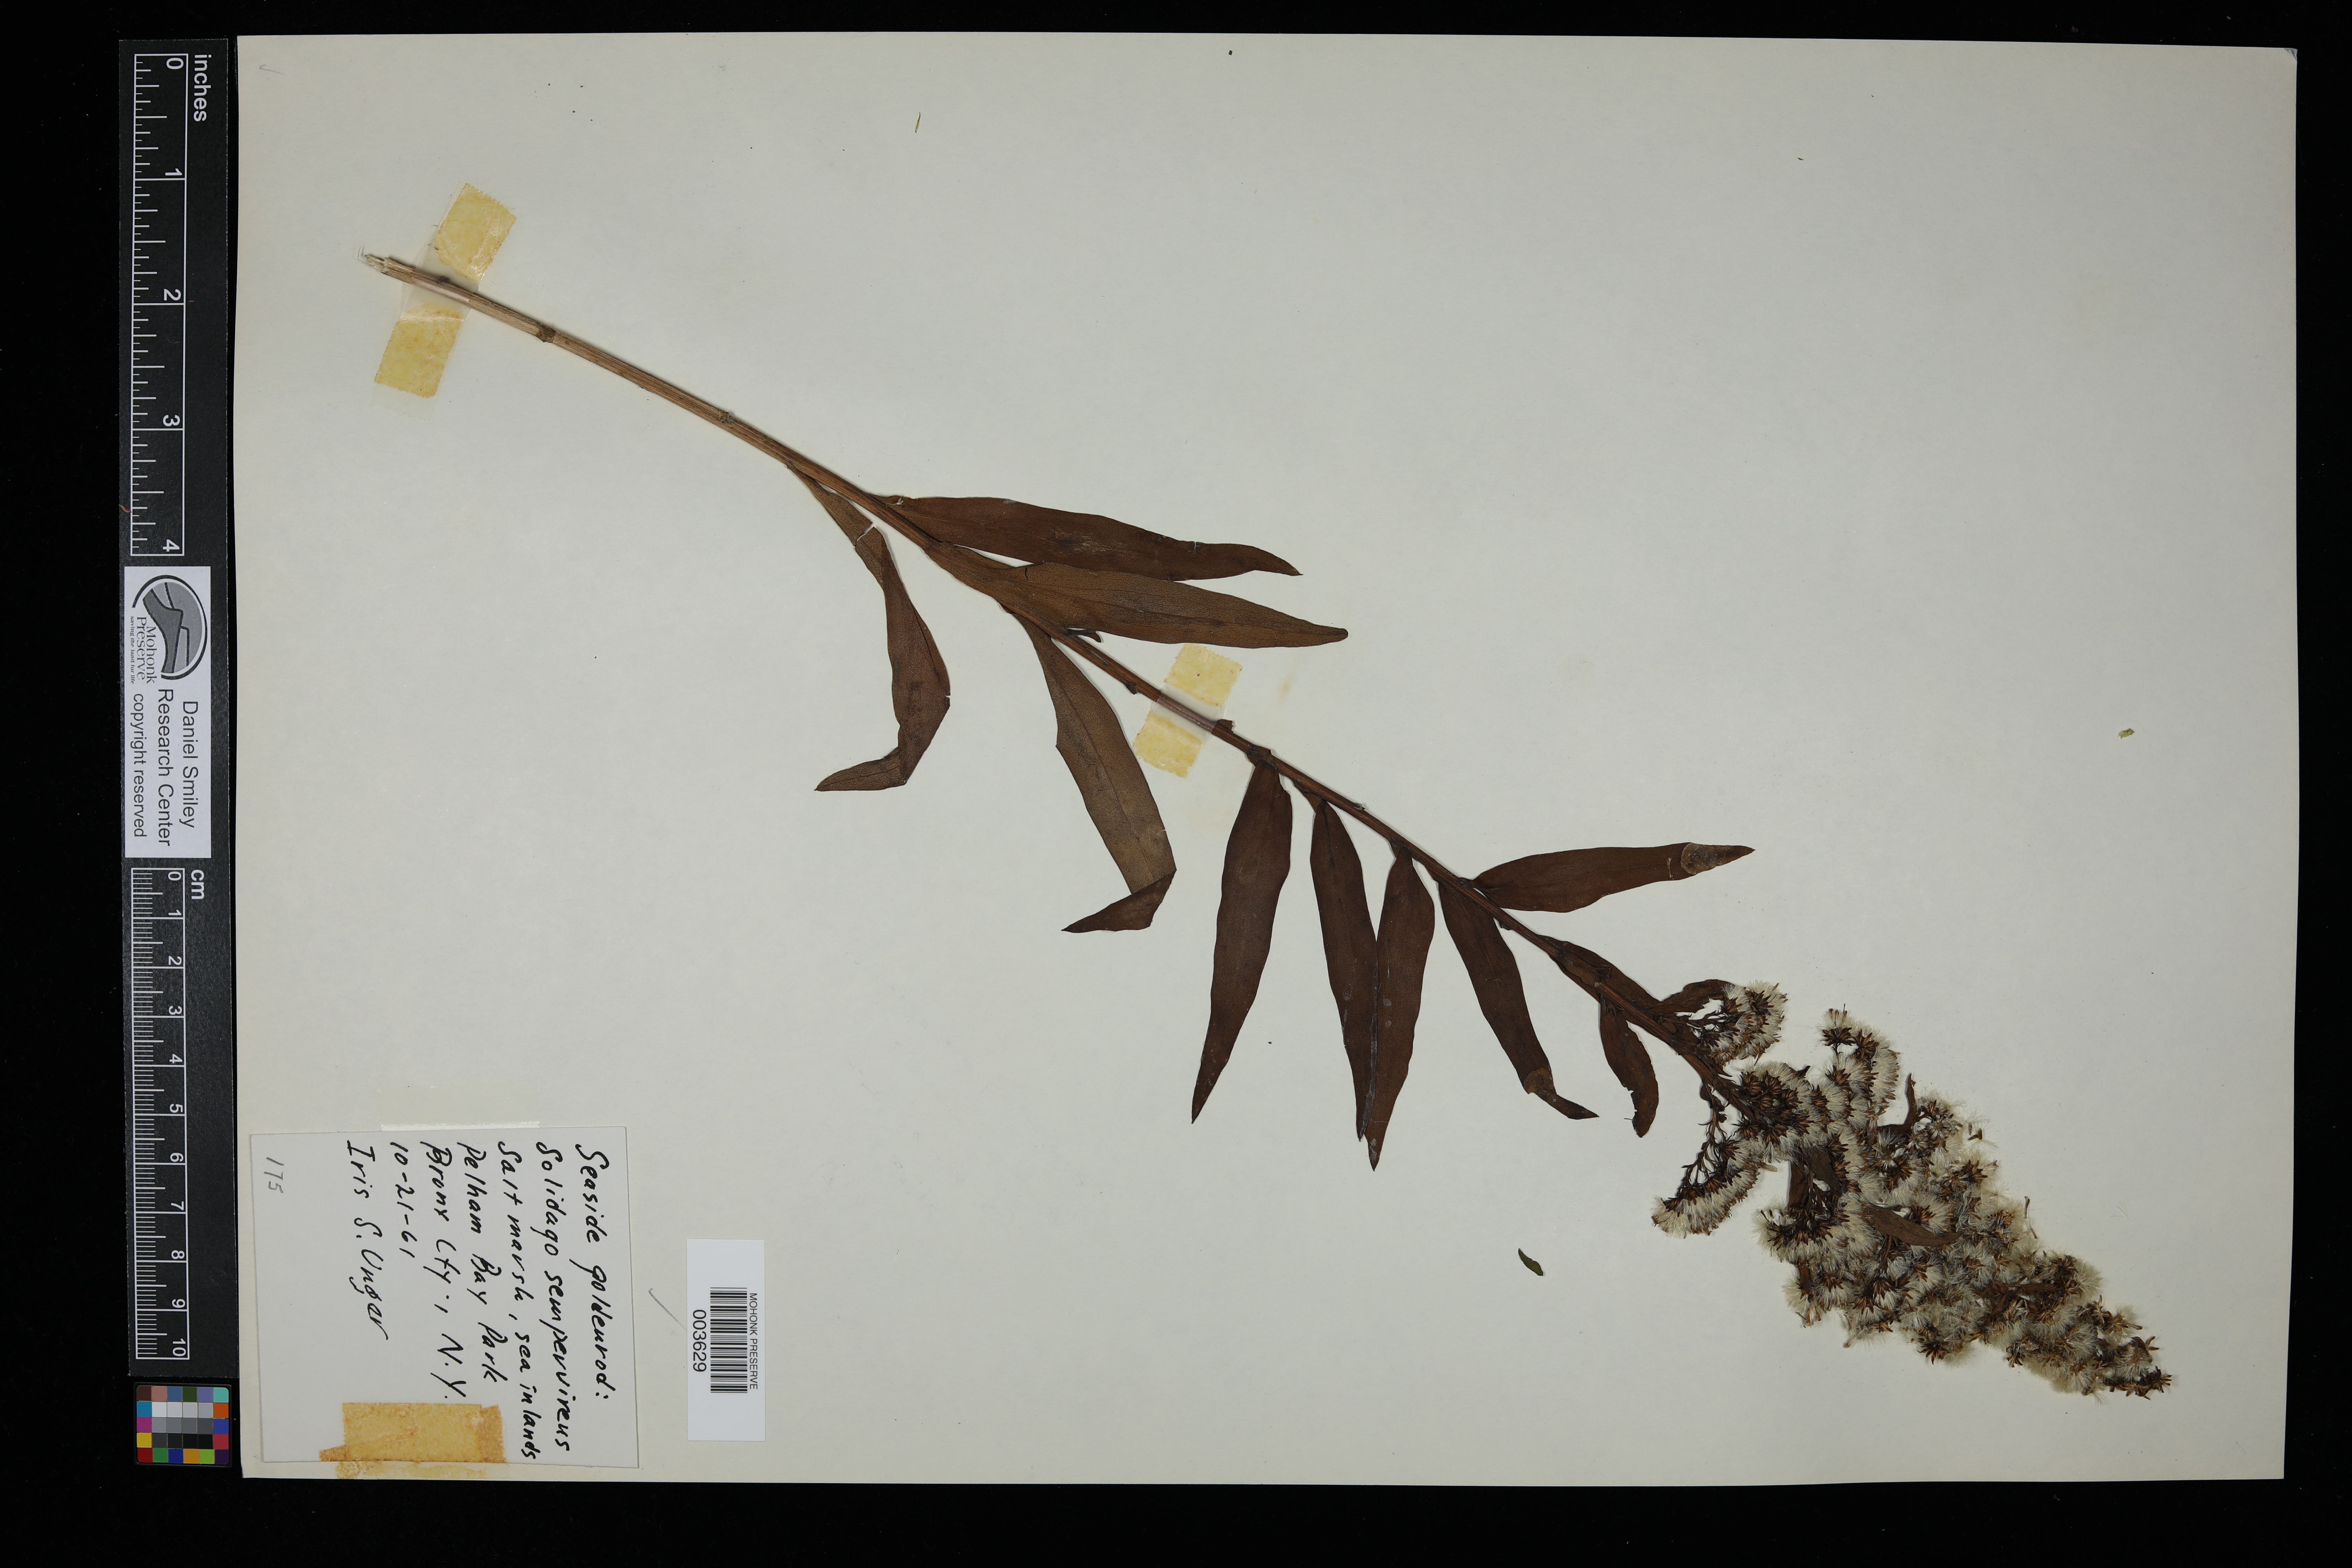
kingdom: Plantae
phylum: Tracheophyta
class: Magnoliopsida
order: Asterales
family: Asteraceae
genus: Solidago
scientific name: Solidago sempervirens
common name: Salt-marsh goldenrod
